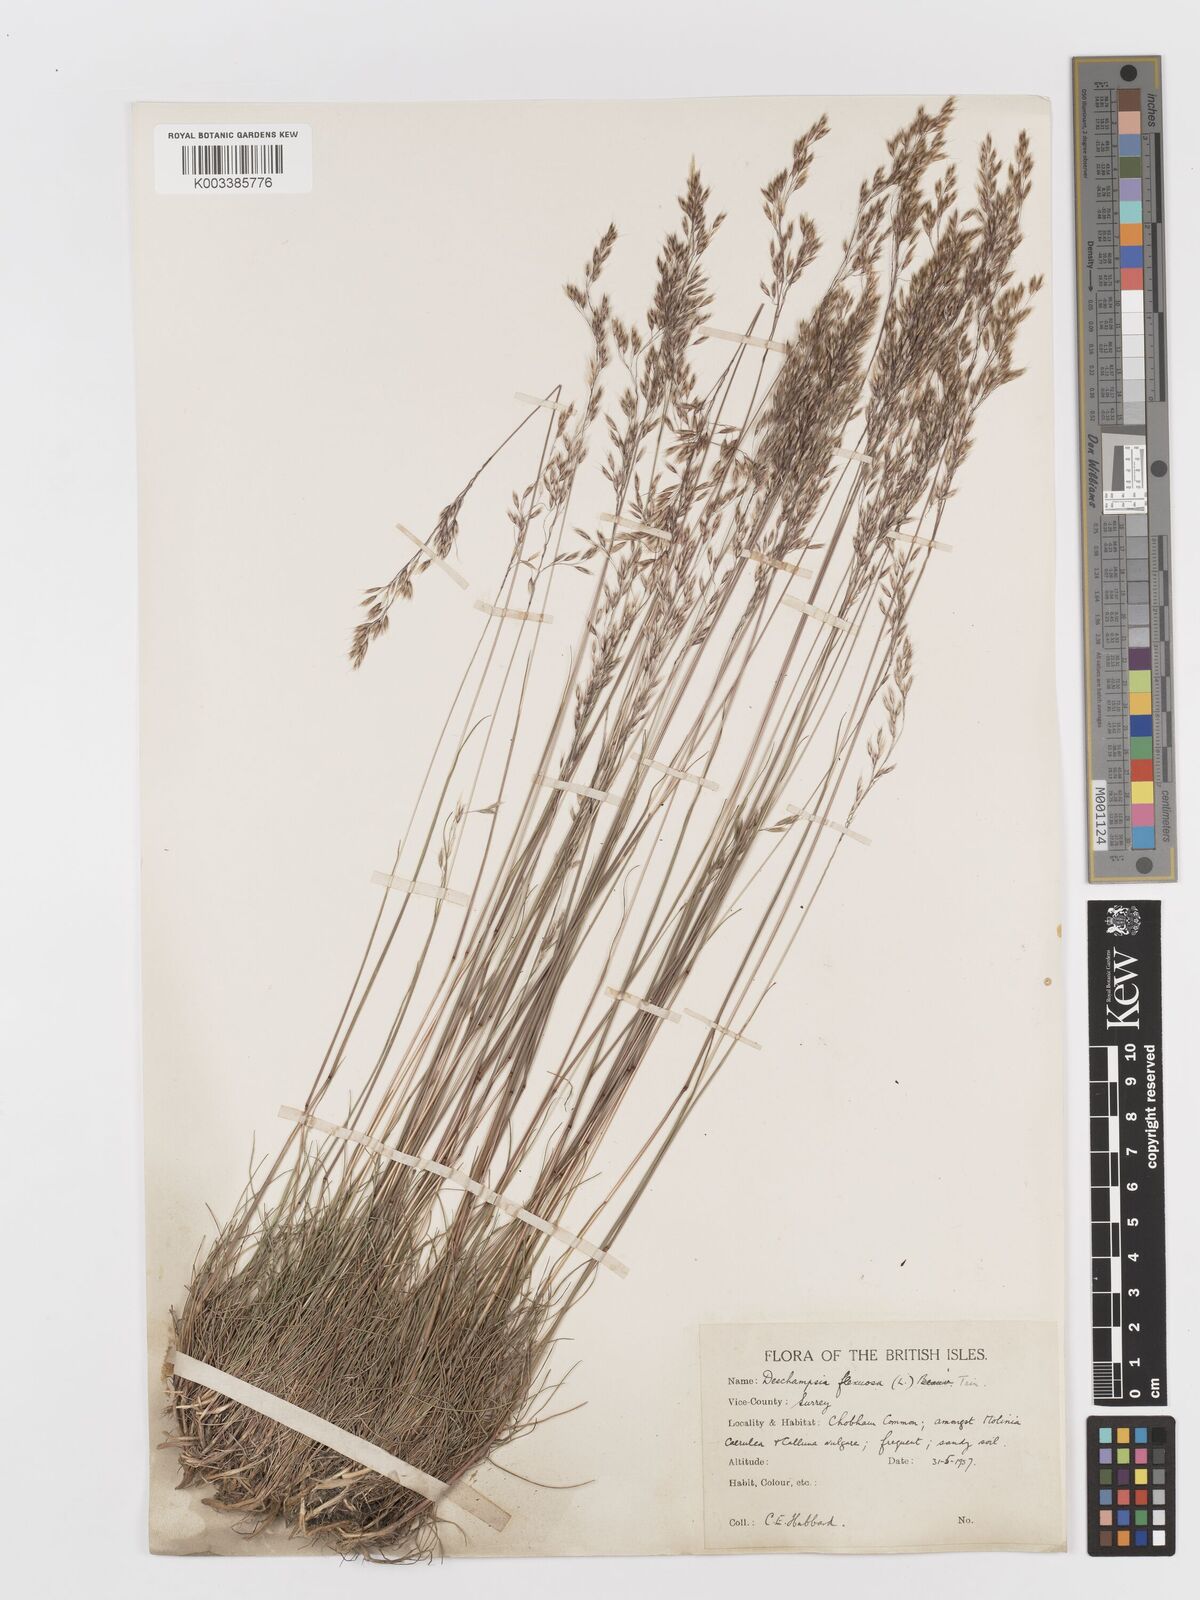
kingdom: Plantae
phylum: Tracheophyta
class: Liliopsida
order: Poales
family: Poaceae
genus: Avenella
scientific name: Avenella flexuosa
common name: Wavy hairgrass
